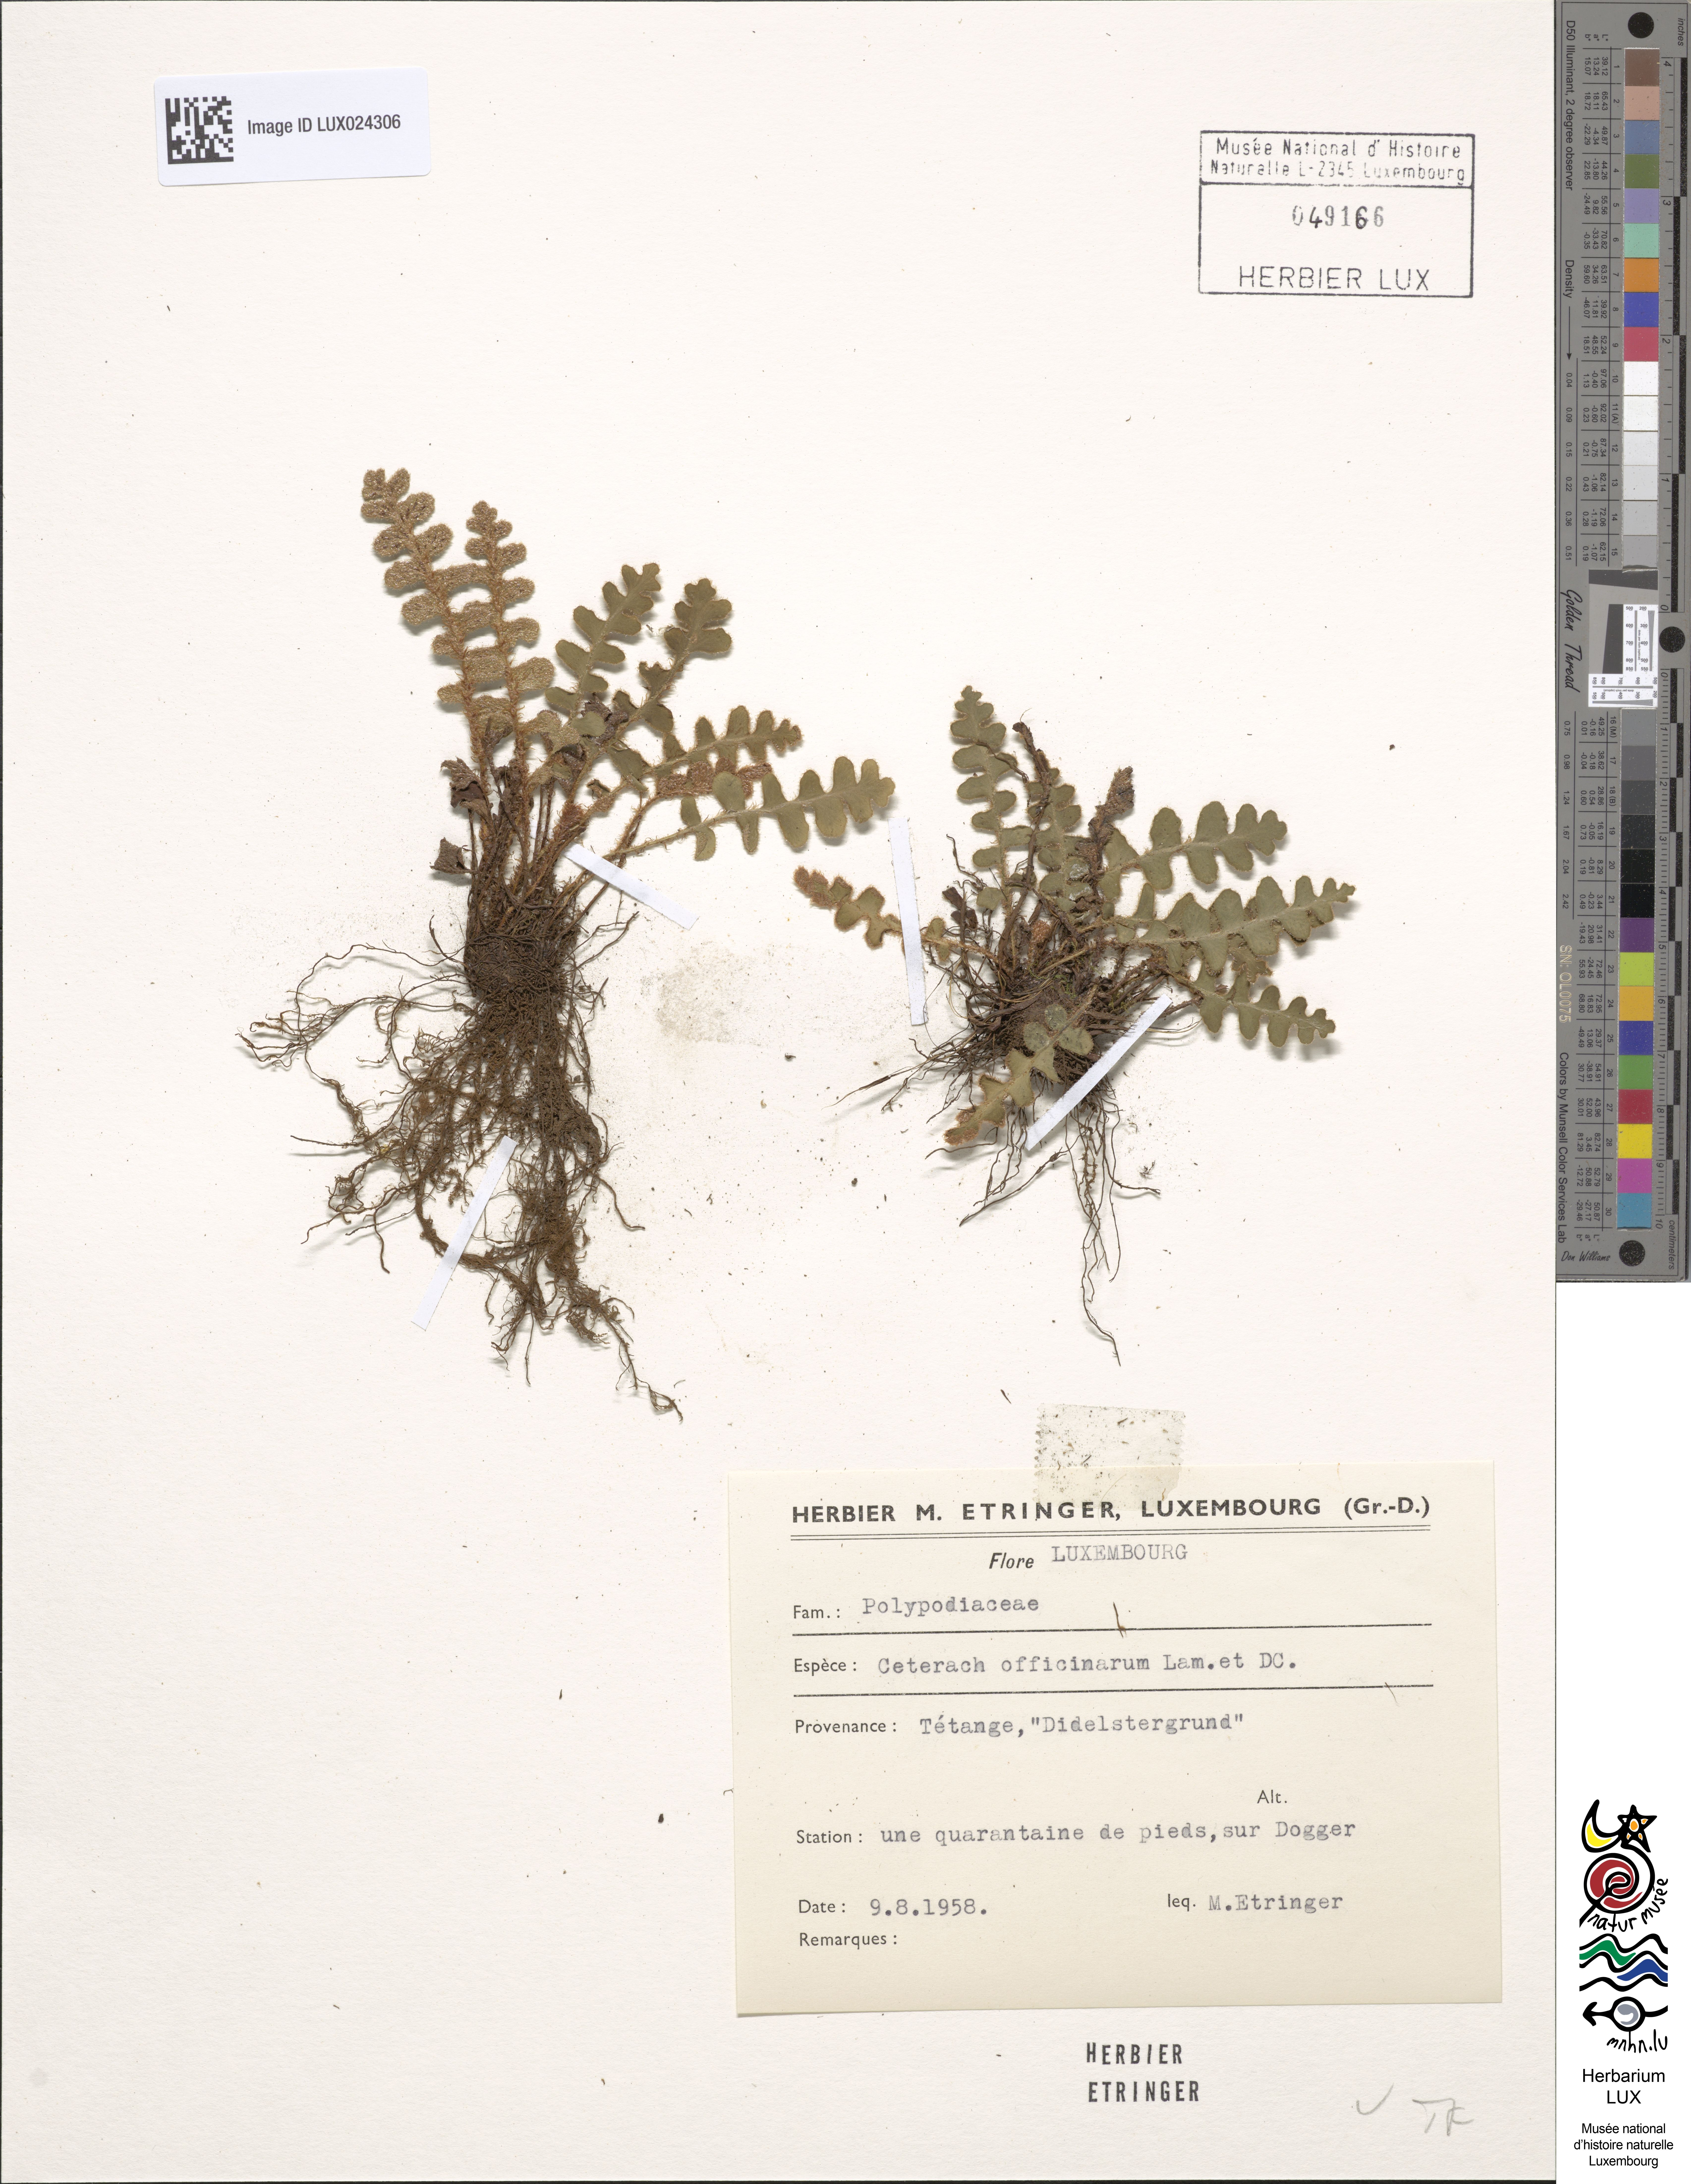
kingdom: Plantae
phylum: Tracheophyta
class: Polypodiopsida
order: Polypodiales
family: Aspleniaceae
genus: Asplenium
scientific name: Asplenium ceterach
